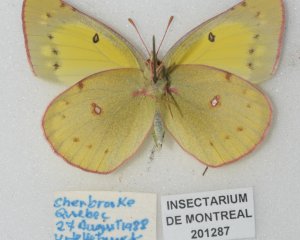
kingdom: Animalia
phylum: Arthropoda
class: Insecta
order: Lepidoptera
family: Pieridae
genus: Colias
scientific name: Colias philodice
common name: Clouded Sulphur
